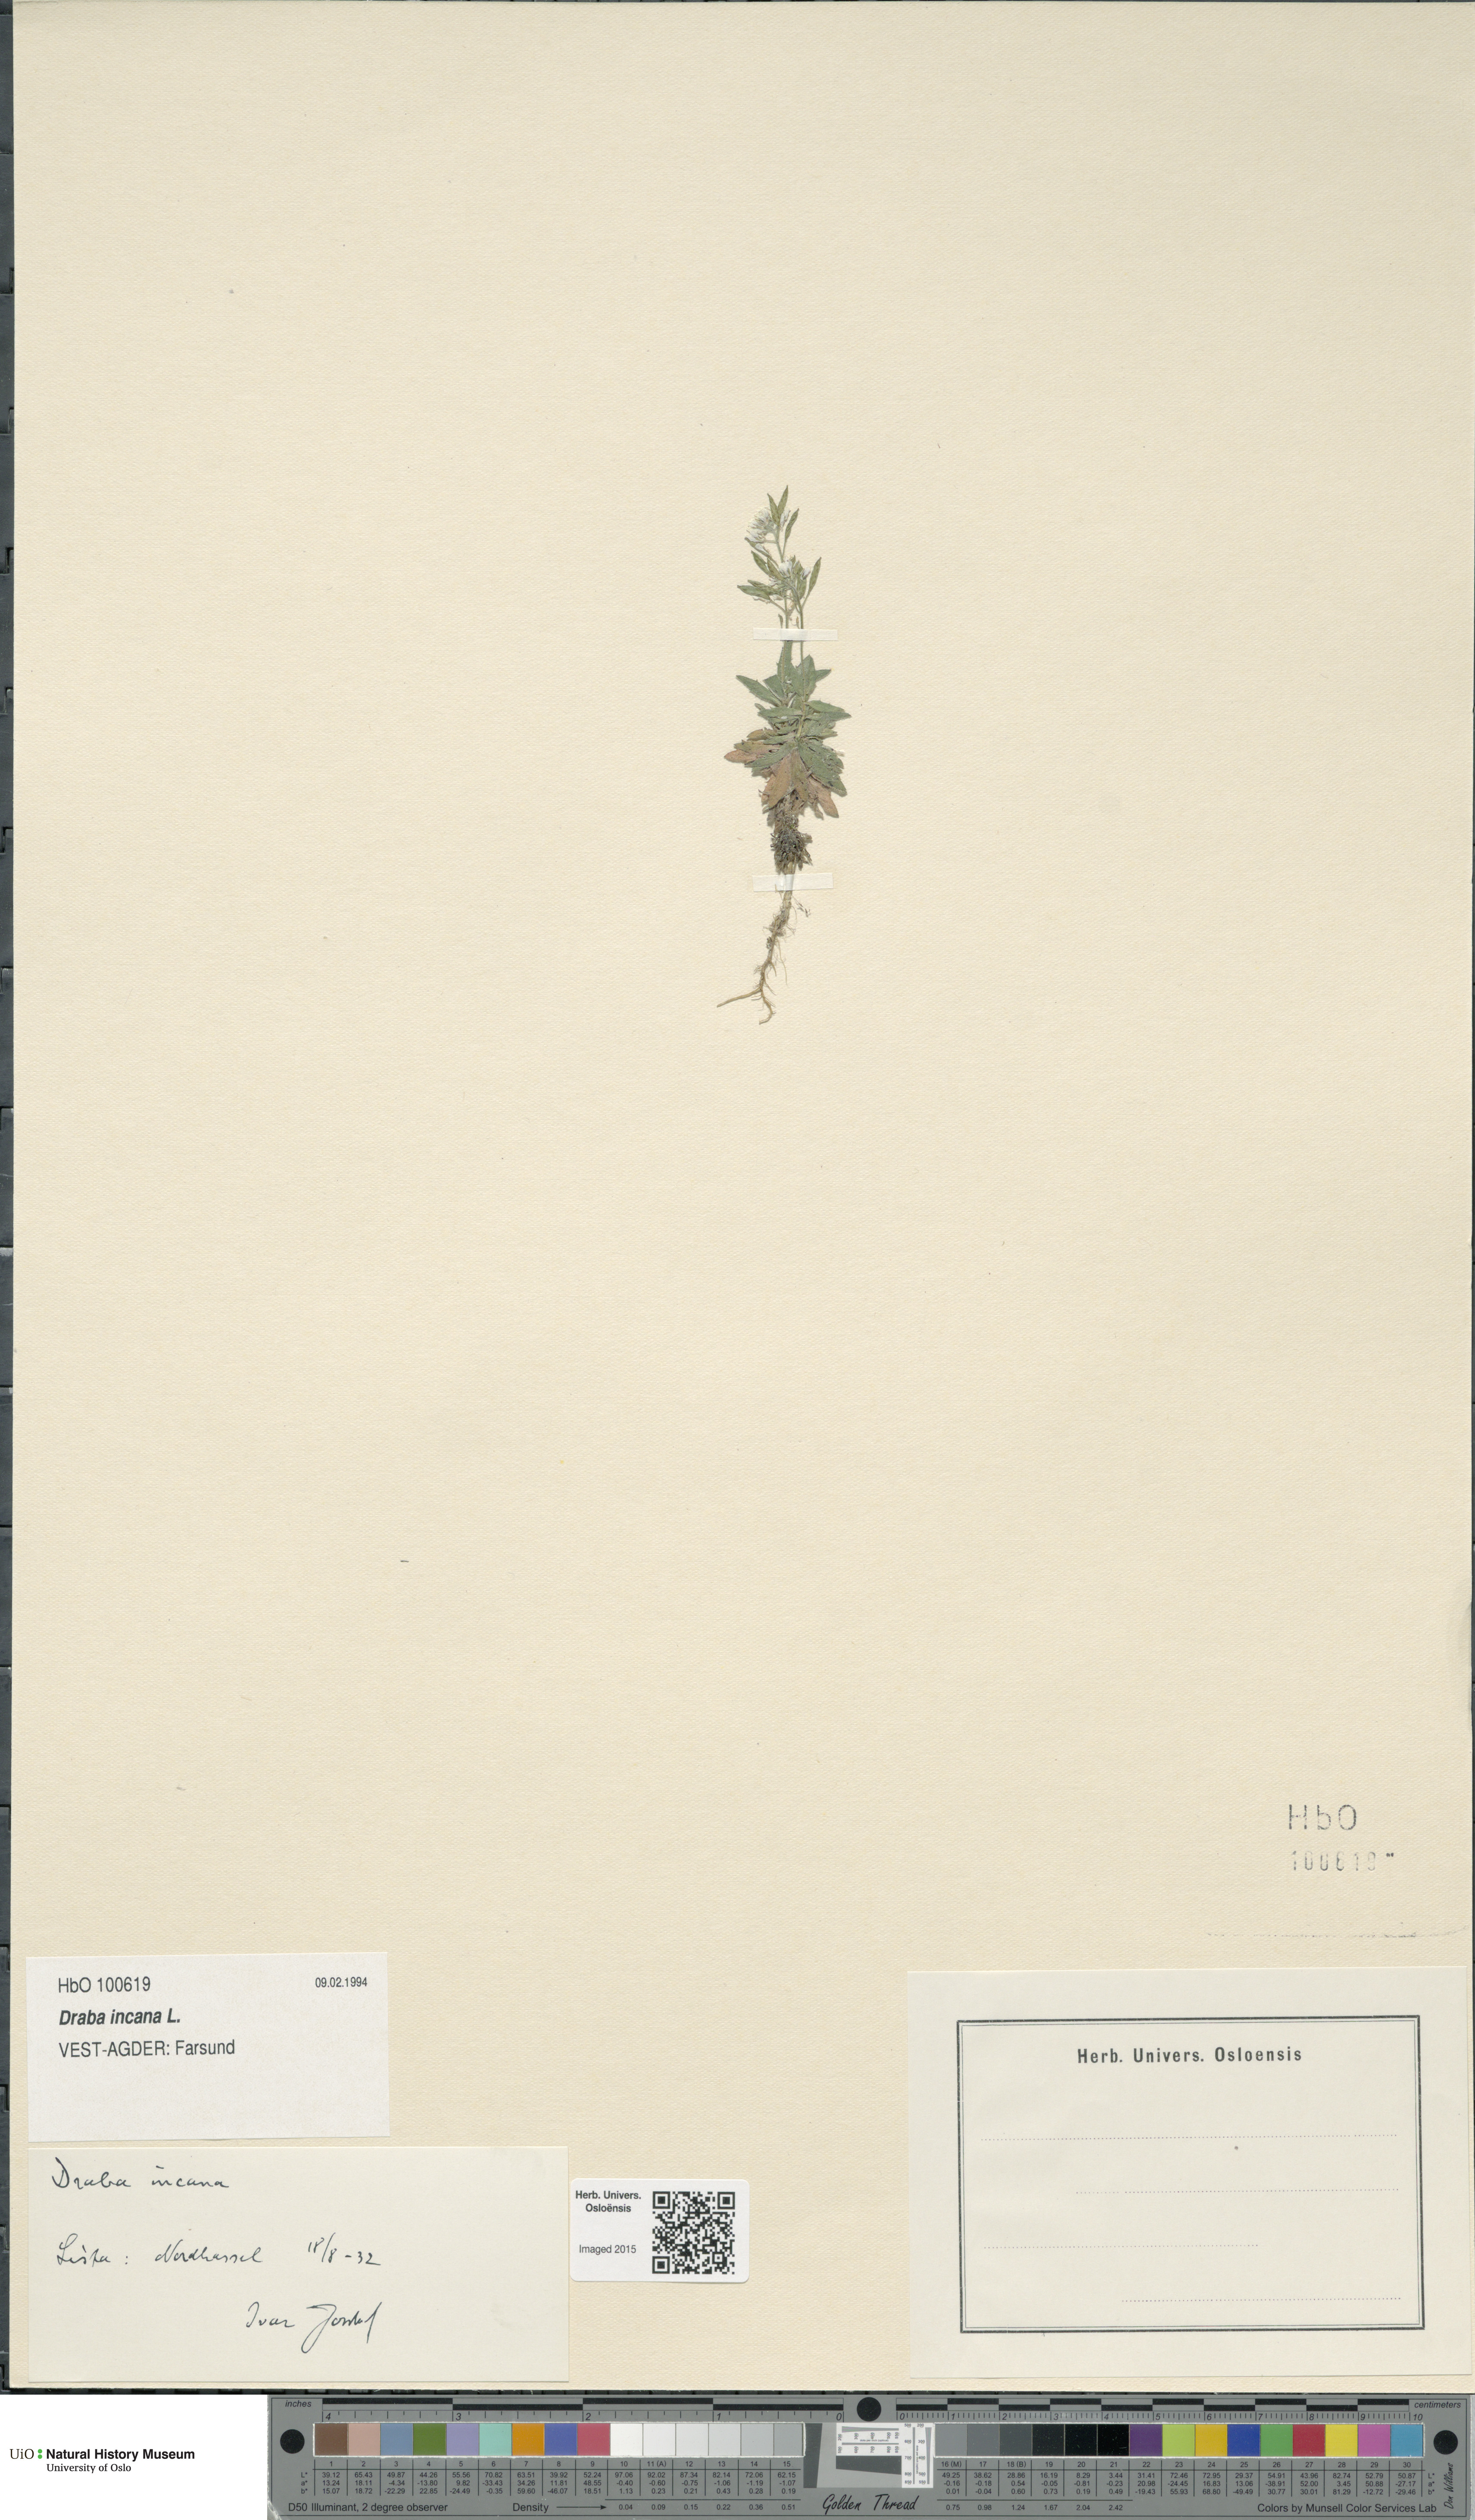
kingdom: Plantae
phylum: Tracheophyta
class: Magnoliopsida
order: Brassicales
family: Brassicaceae
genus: Draba
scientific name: Draba incana
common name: Hoary whitlow-grass
